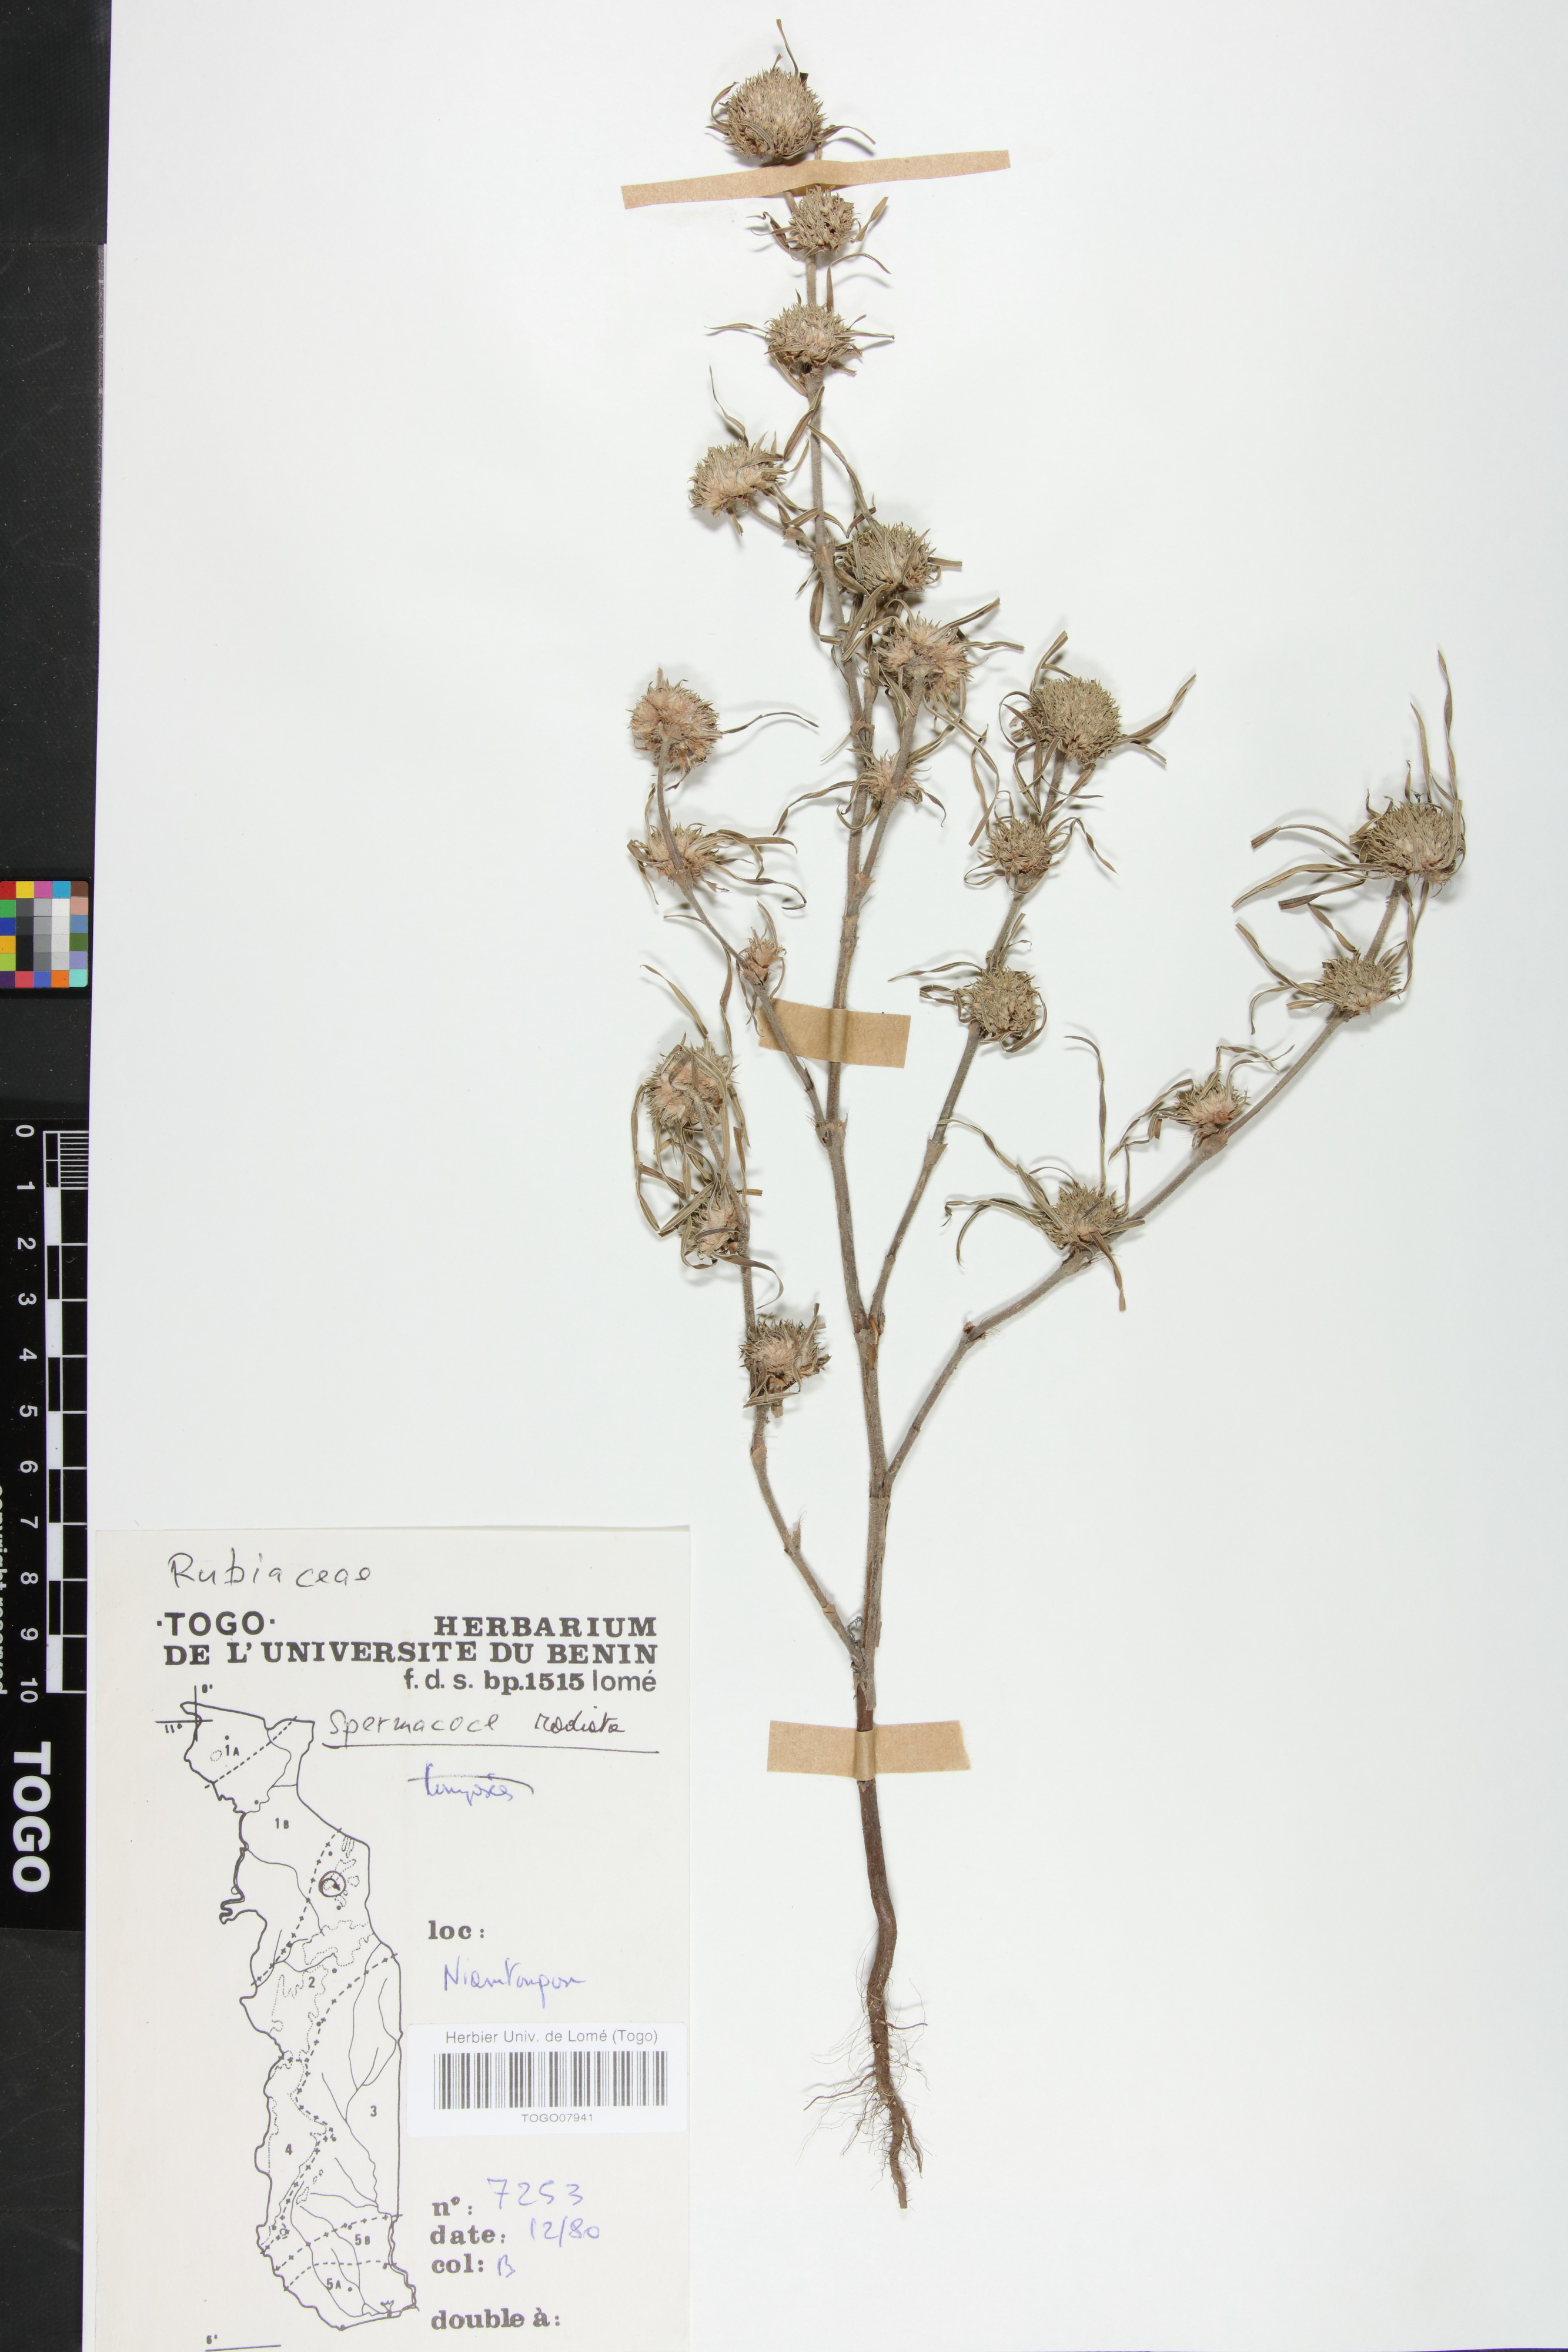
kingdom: Plantae
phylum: Tracheophyta
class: Magnoliopsida
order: Gentianales
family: Rubiaceae
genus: Spermacoce
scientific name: Spermacoce radiata
